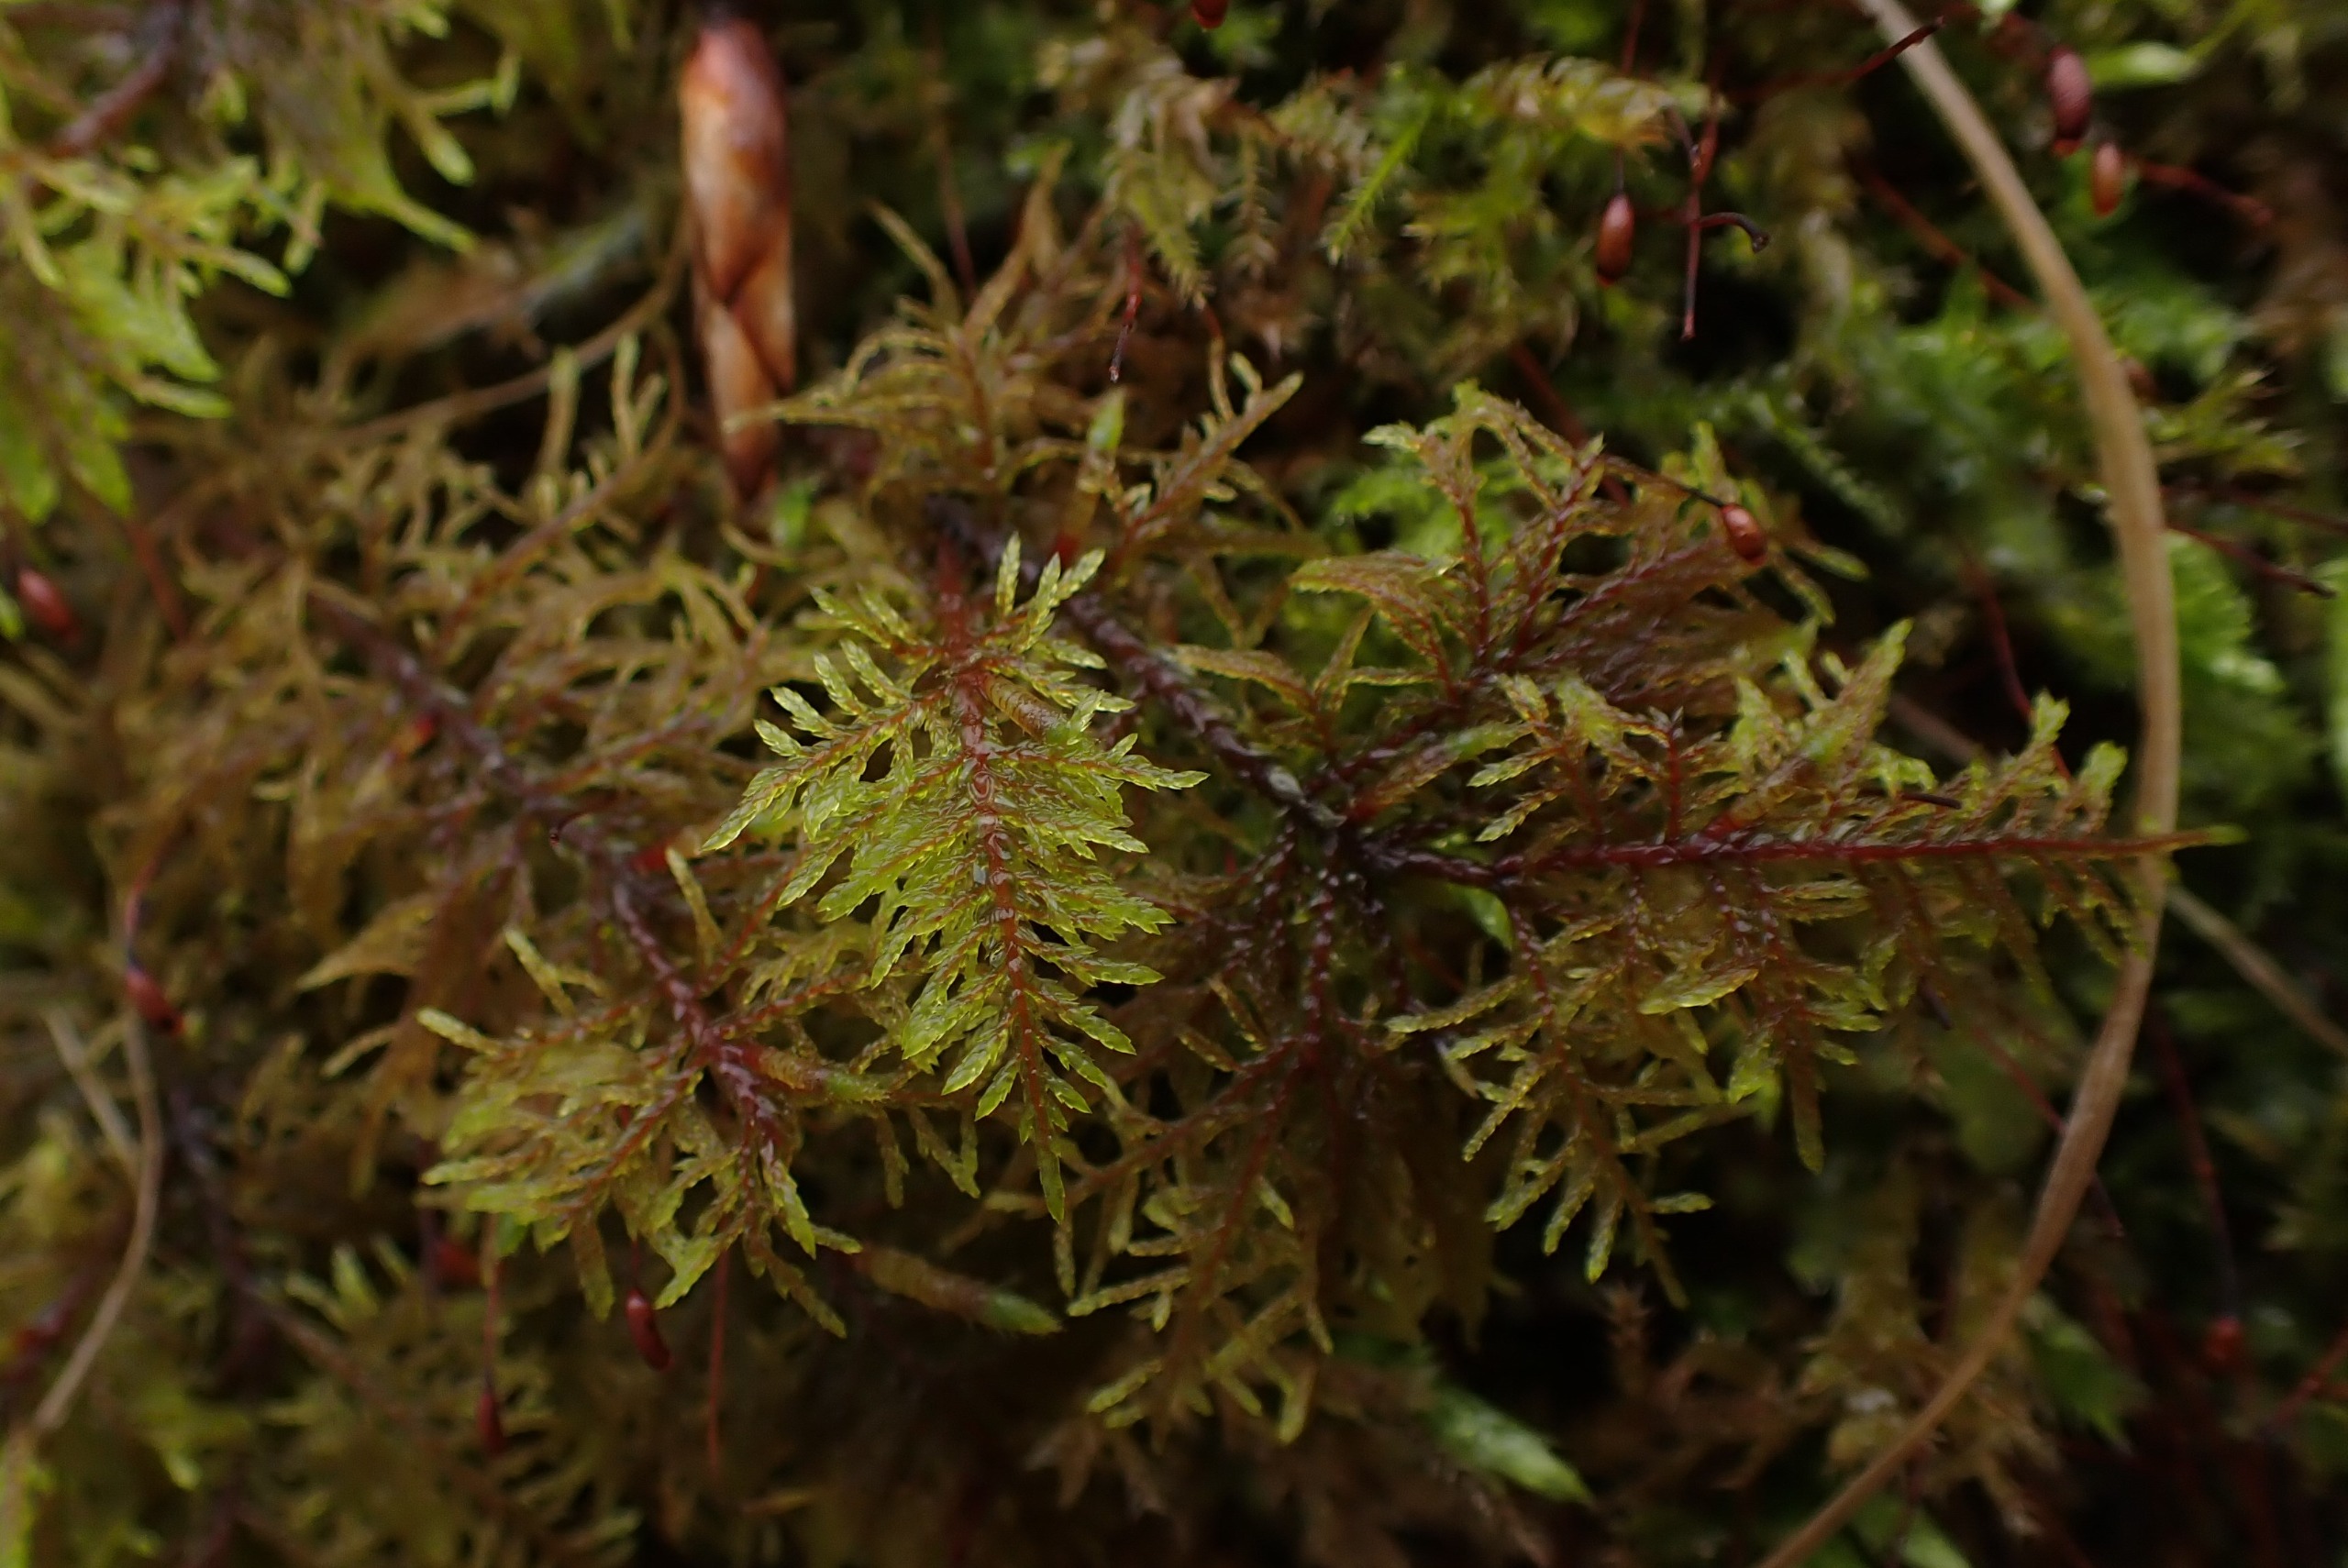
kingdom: Plantae
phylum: Bryophyta
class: Bryopsida
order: Hypnales
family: Hylocomiaceae
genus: Hylocomium
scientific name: Hylocomium splendens
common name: Almindelig etagemos
